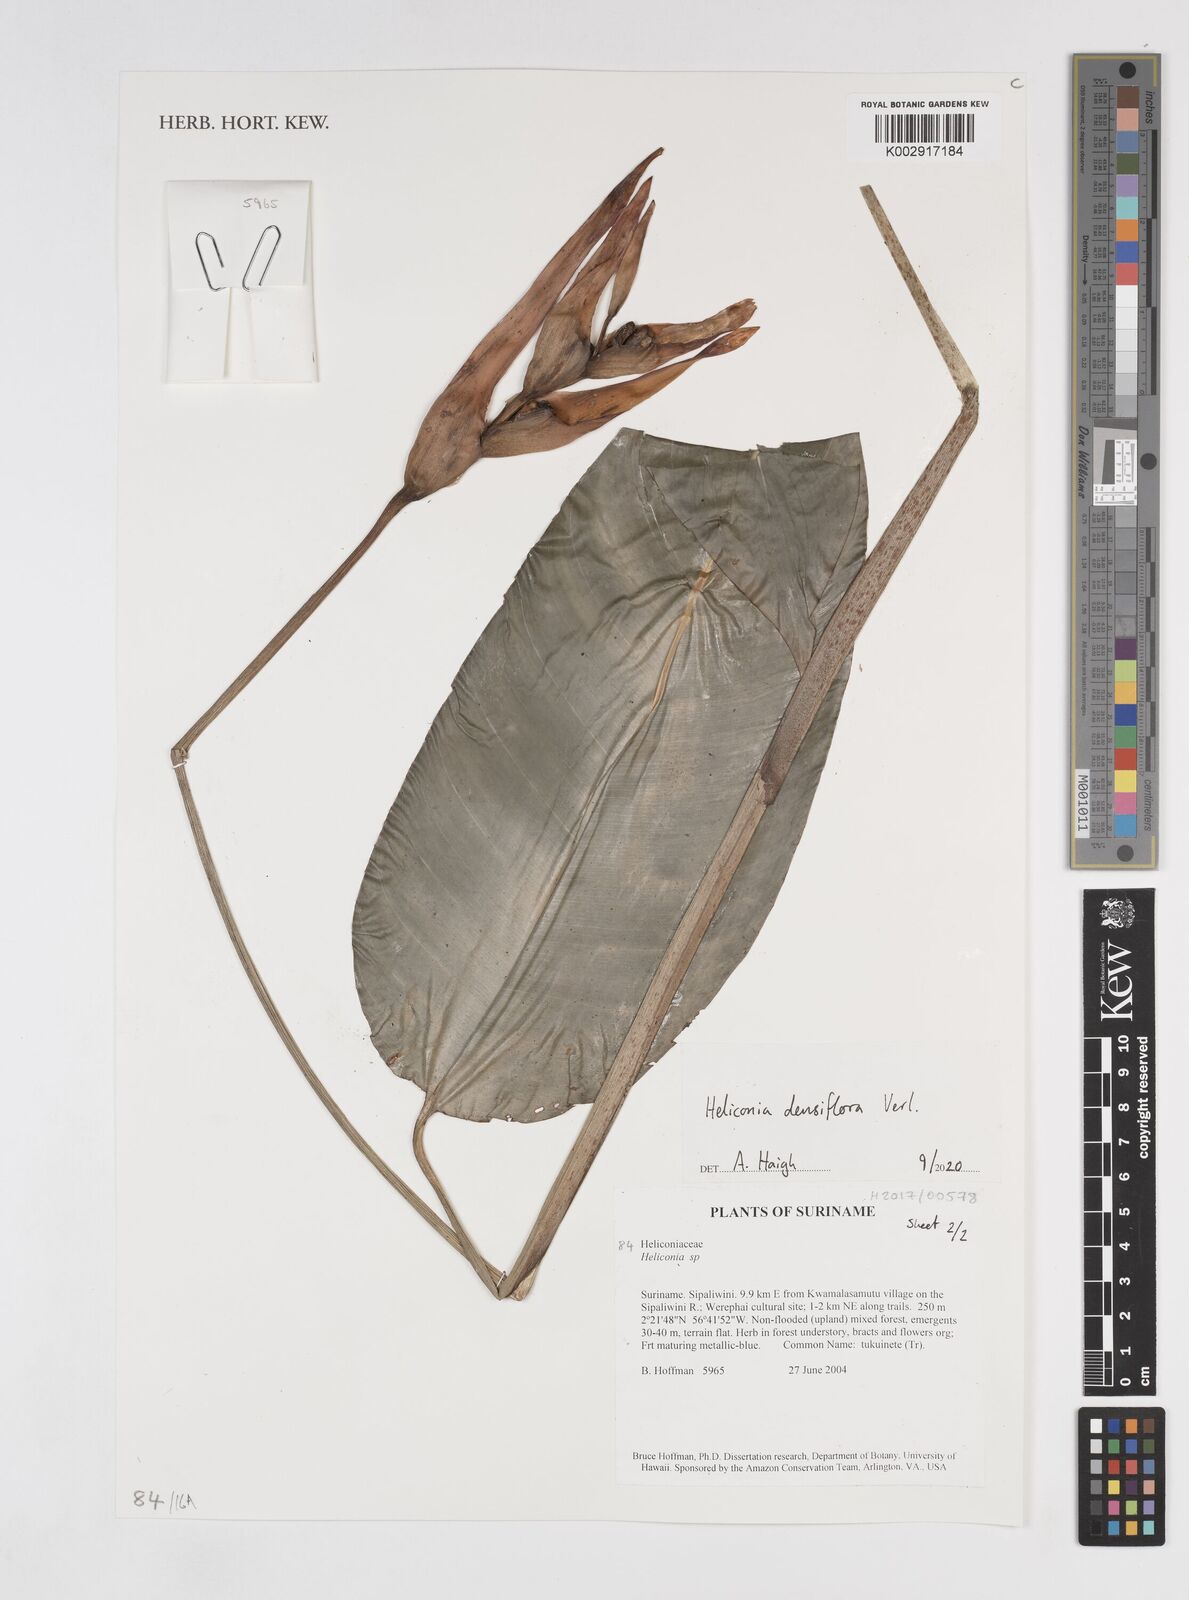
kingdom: Plantae
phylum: Tracheophyta
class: Liliopsida
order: Zingiberales
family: Heliconiaceae
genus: Heliconia
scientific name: Heliconia densiflora
